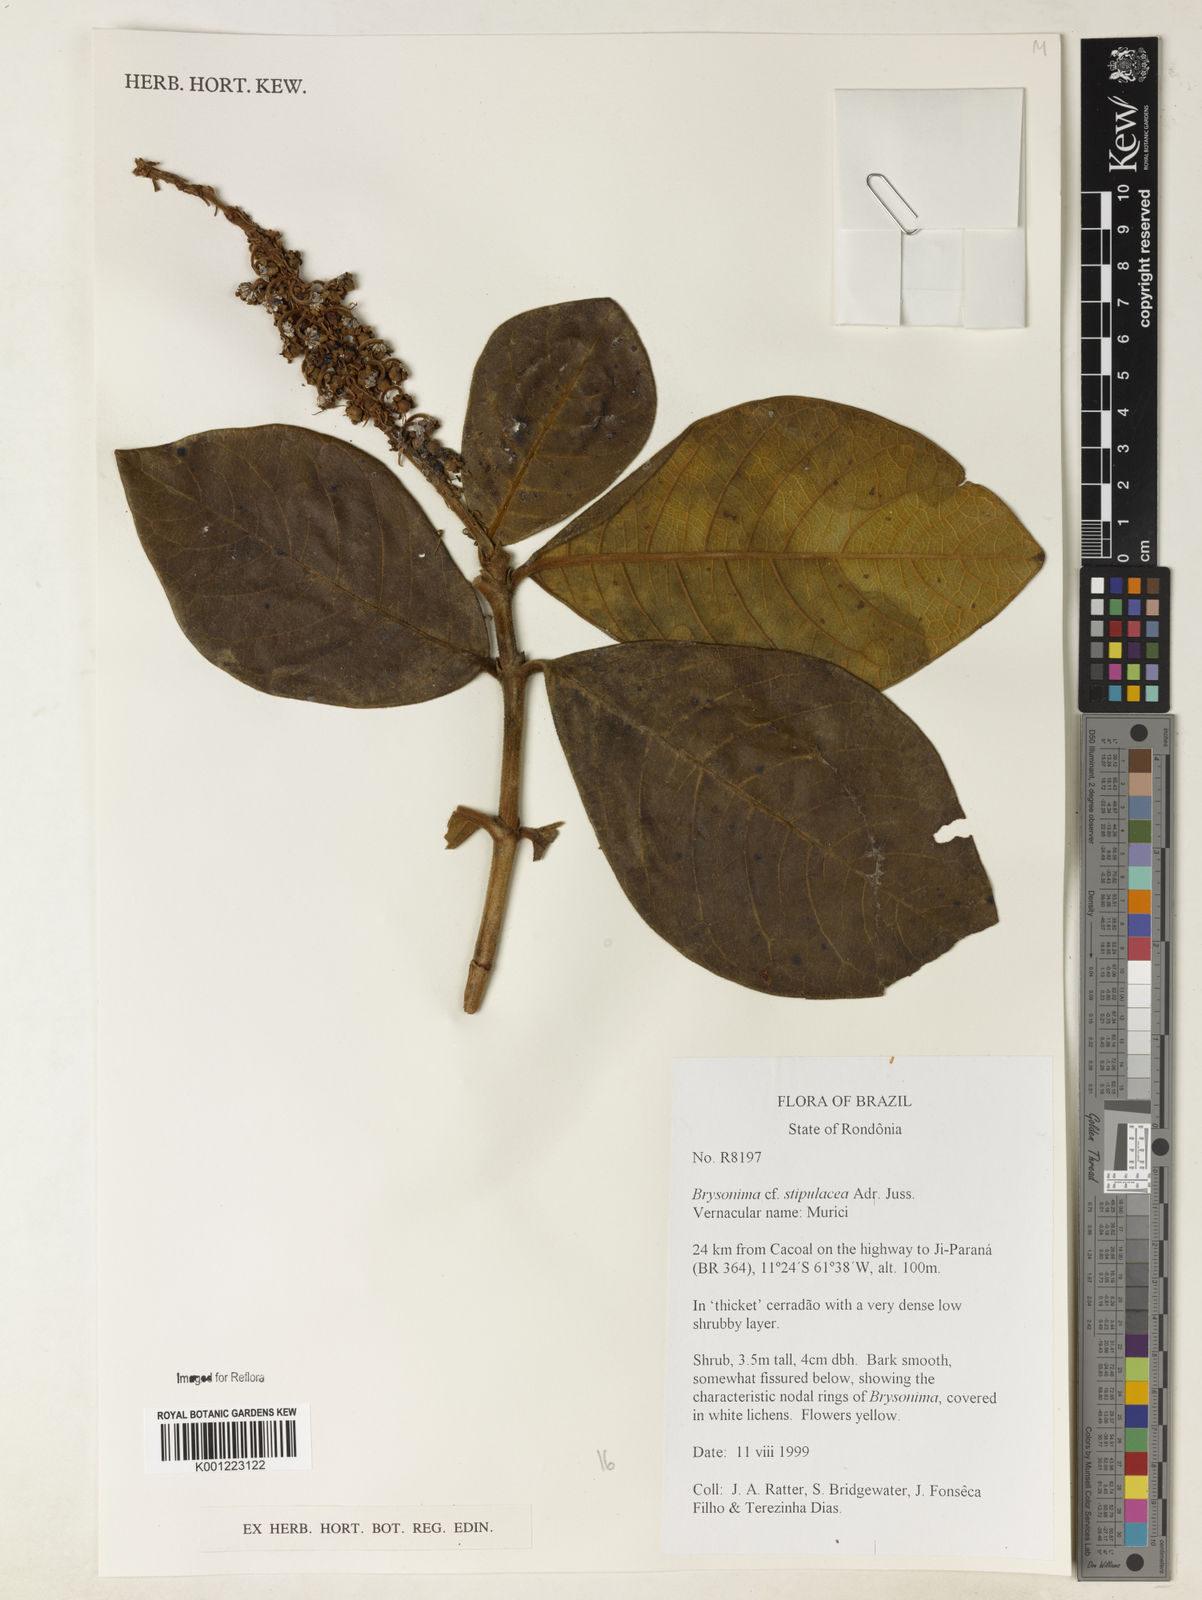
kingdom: Plantae
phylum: Tracheophyta
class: Magnoliopsida
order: Malpighiales
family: Malpighiaceae
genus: Byrsonima
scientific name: Byrsonima stipulacea
